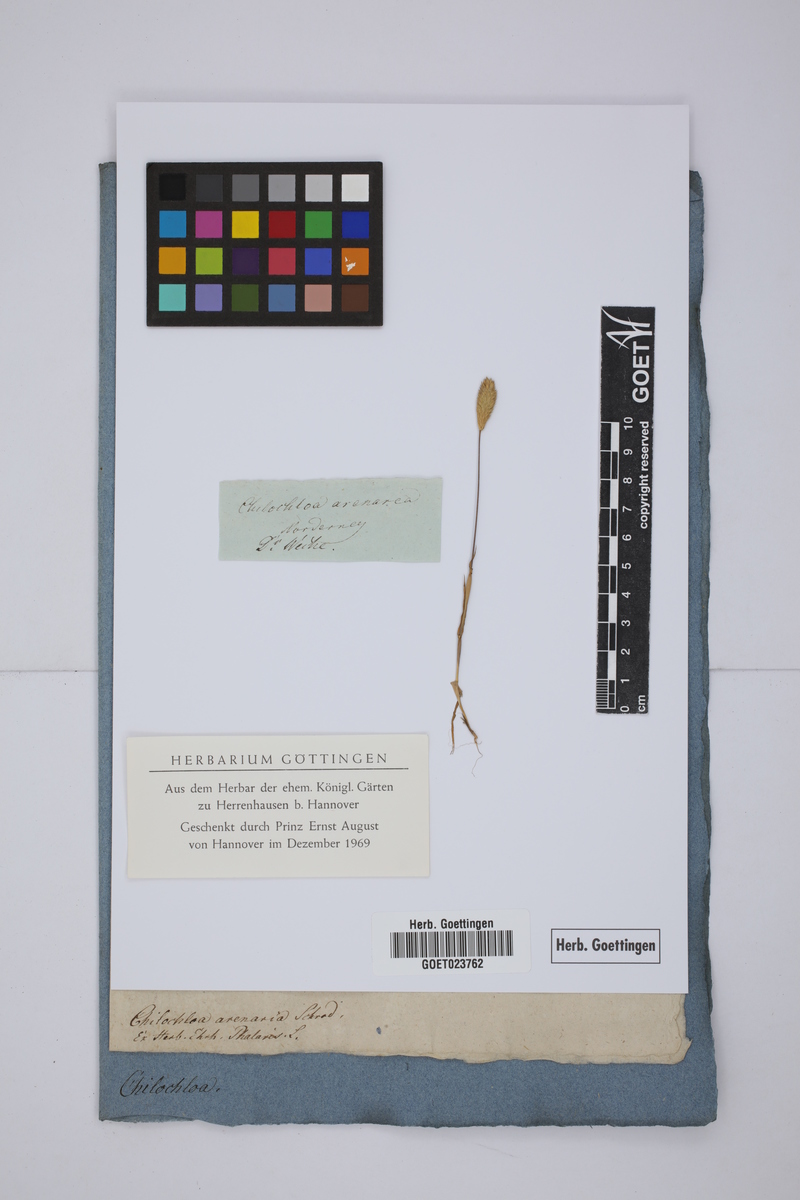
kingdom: Plantae
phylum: Tracheophyta
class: Liliopsida
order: Poales
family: Poaceae
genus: Phleum
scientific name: Phleum arenarium
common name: Sand cat's-tail
